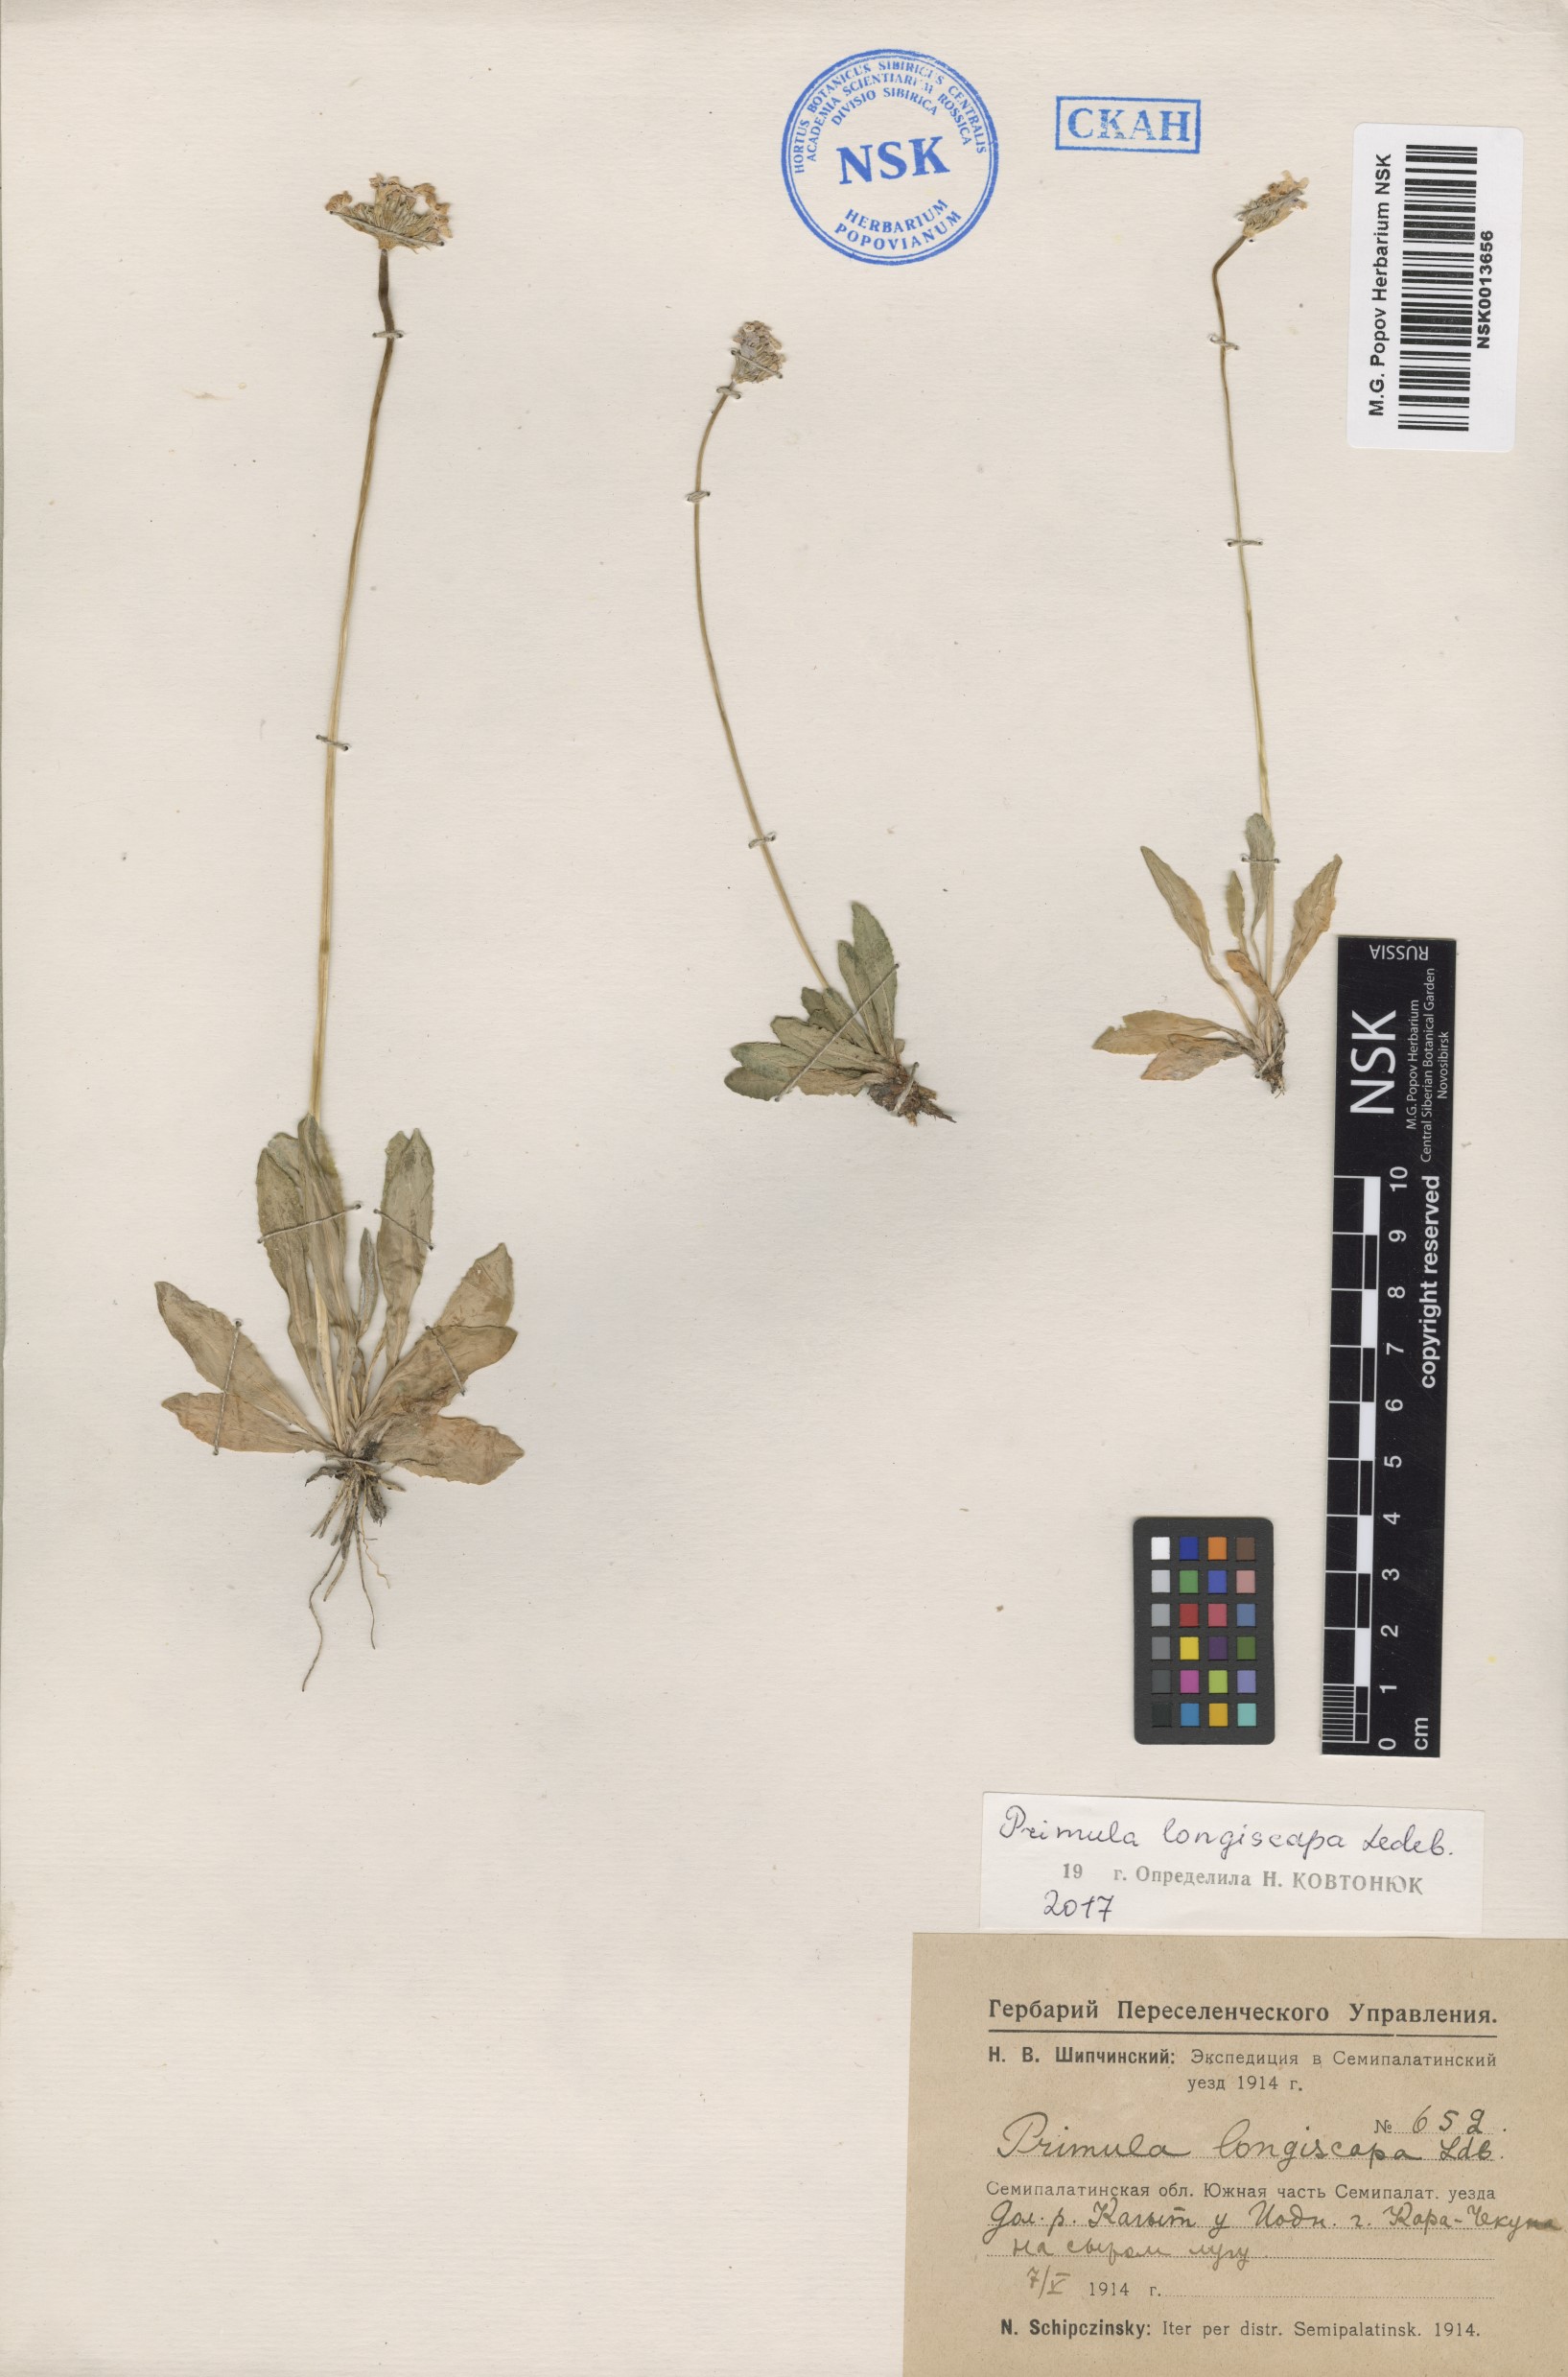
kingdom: Plantae
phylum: Tracheophyta
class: Magnoliopsida
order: Ericales
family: Primulaceae
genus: Primula
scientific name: Primula longiscapa
